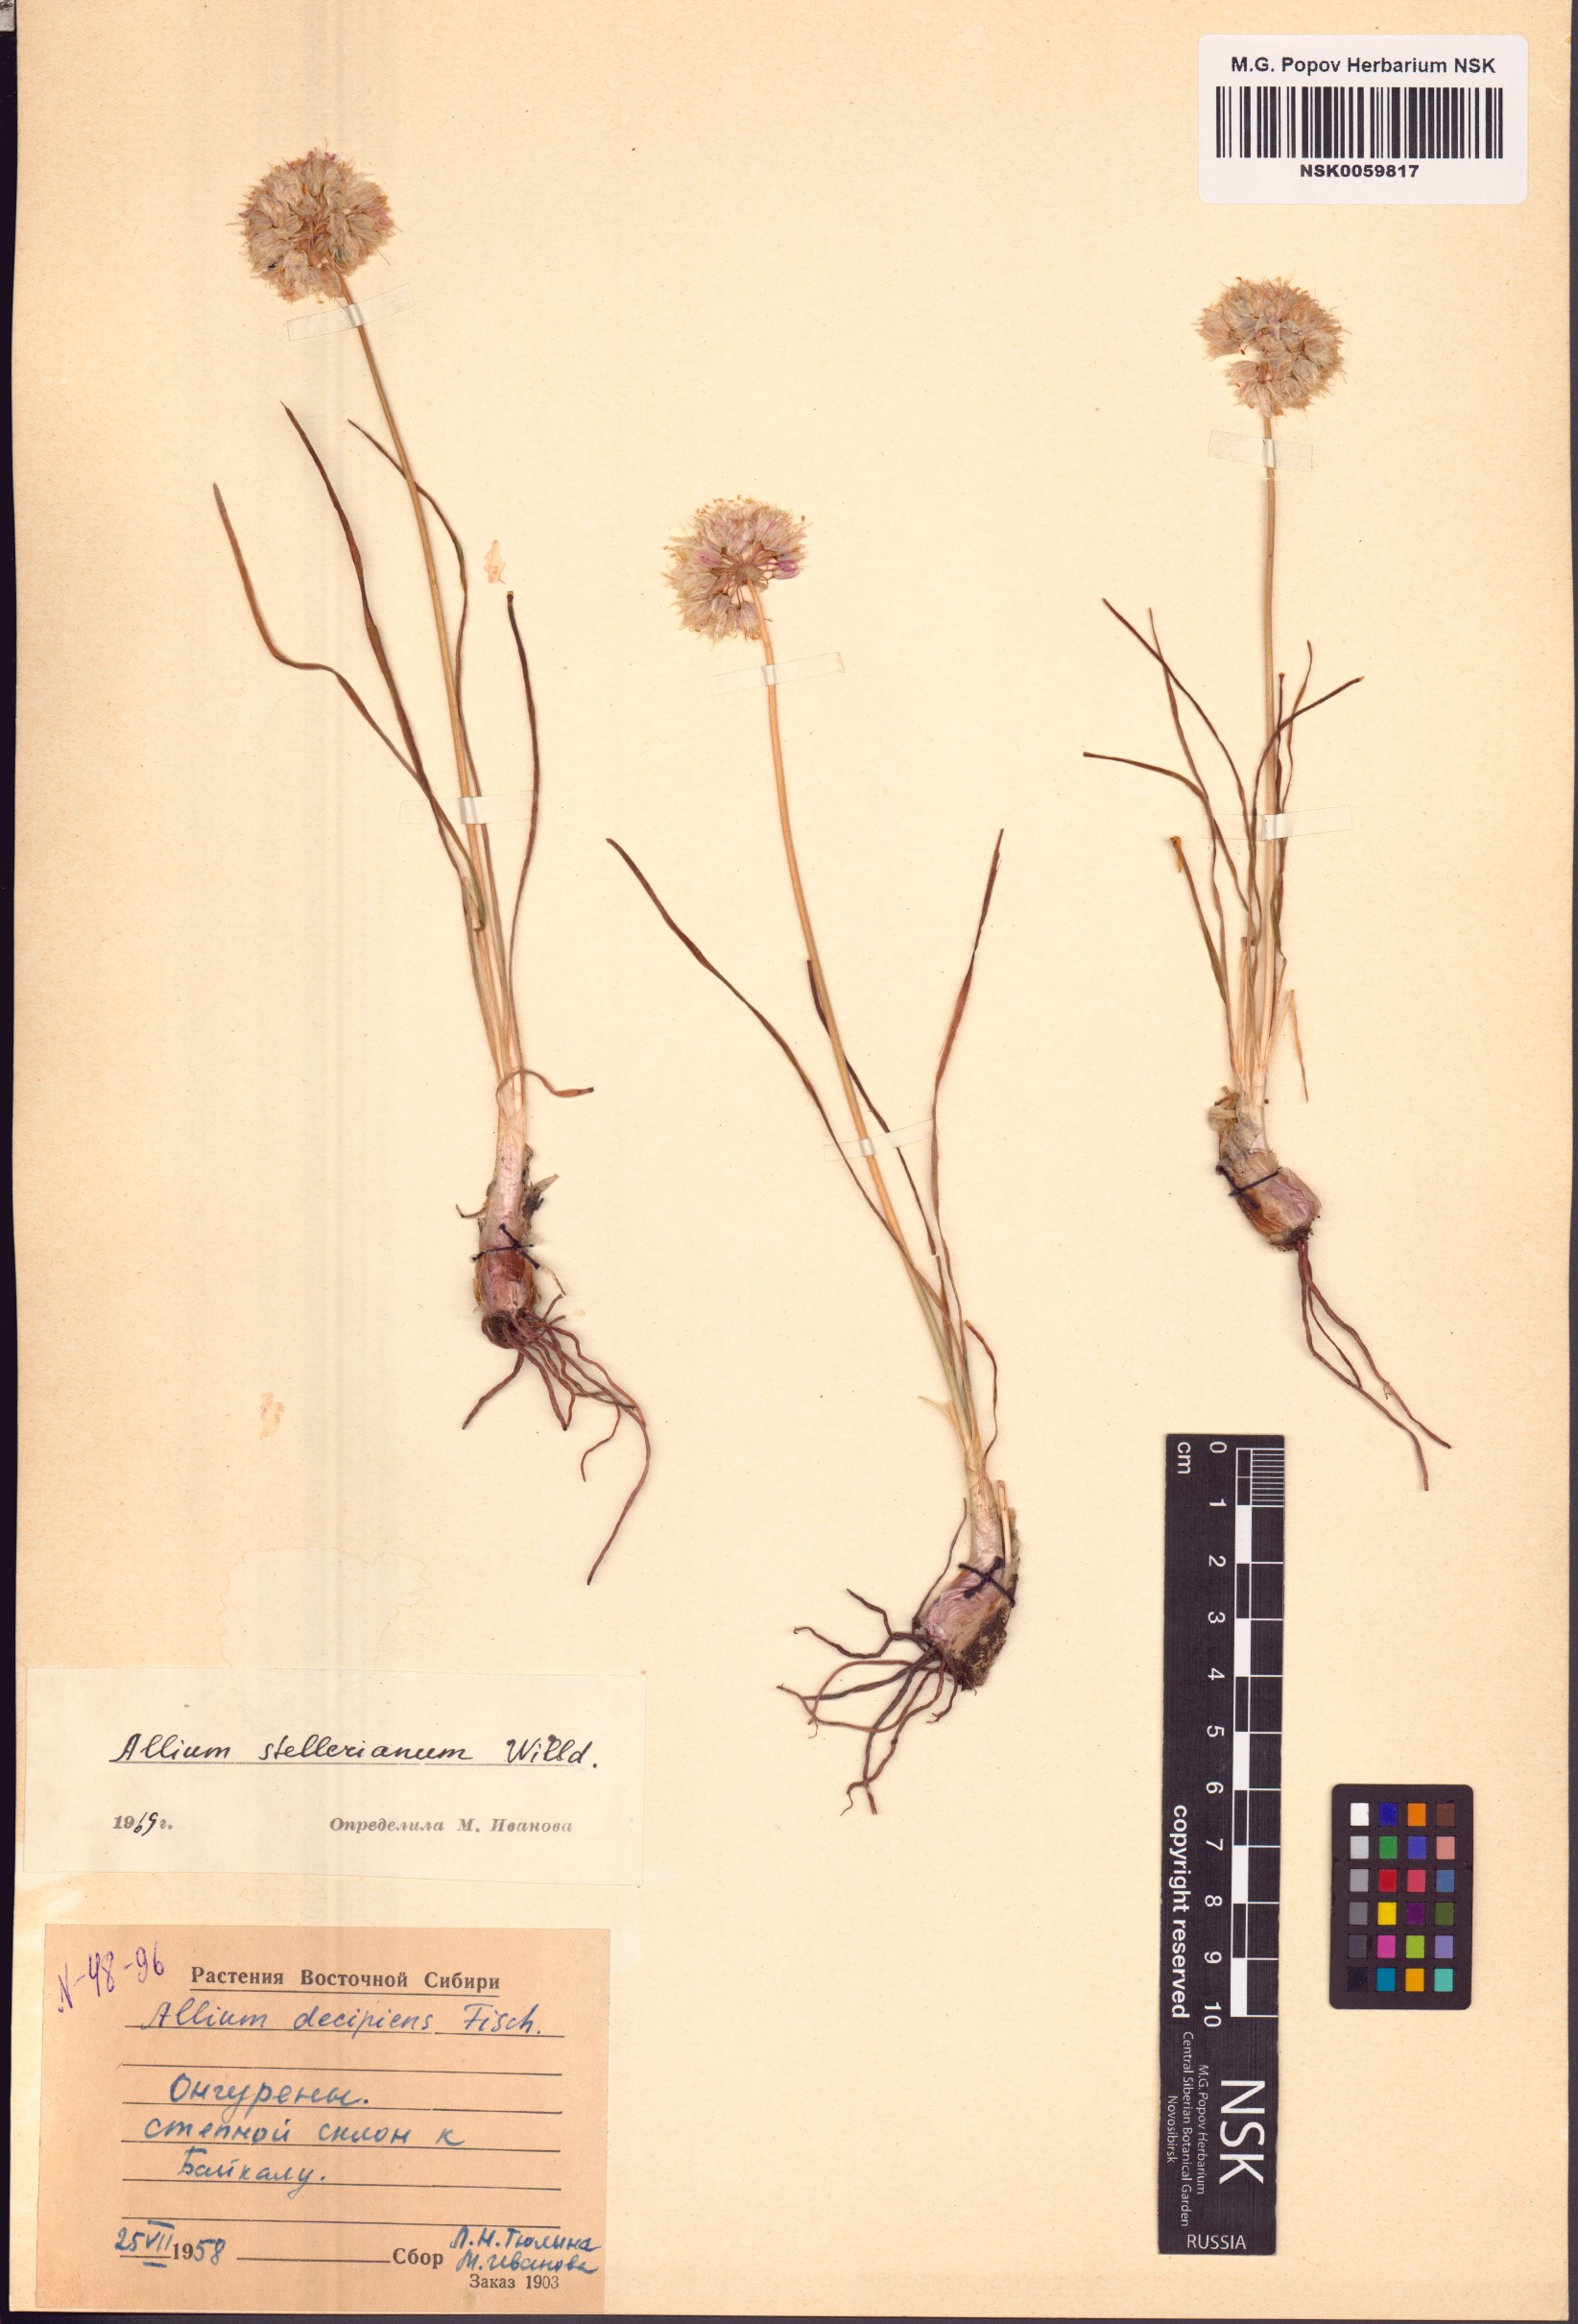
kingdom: Plantae
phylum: Tracheophyta
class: Liliopsida
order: Asparagales
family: Amaryllidaceae
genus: Allium
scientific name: Allium stellerianum
